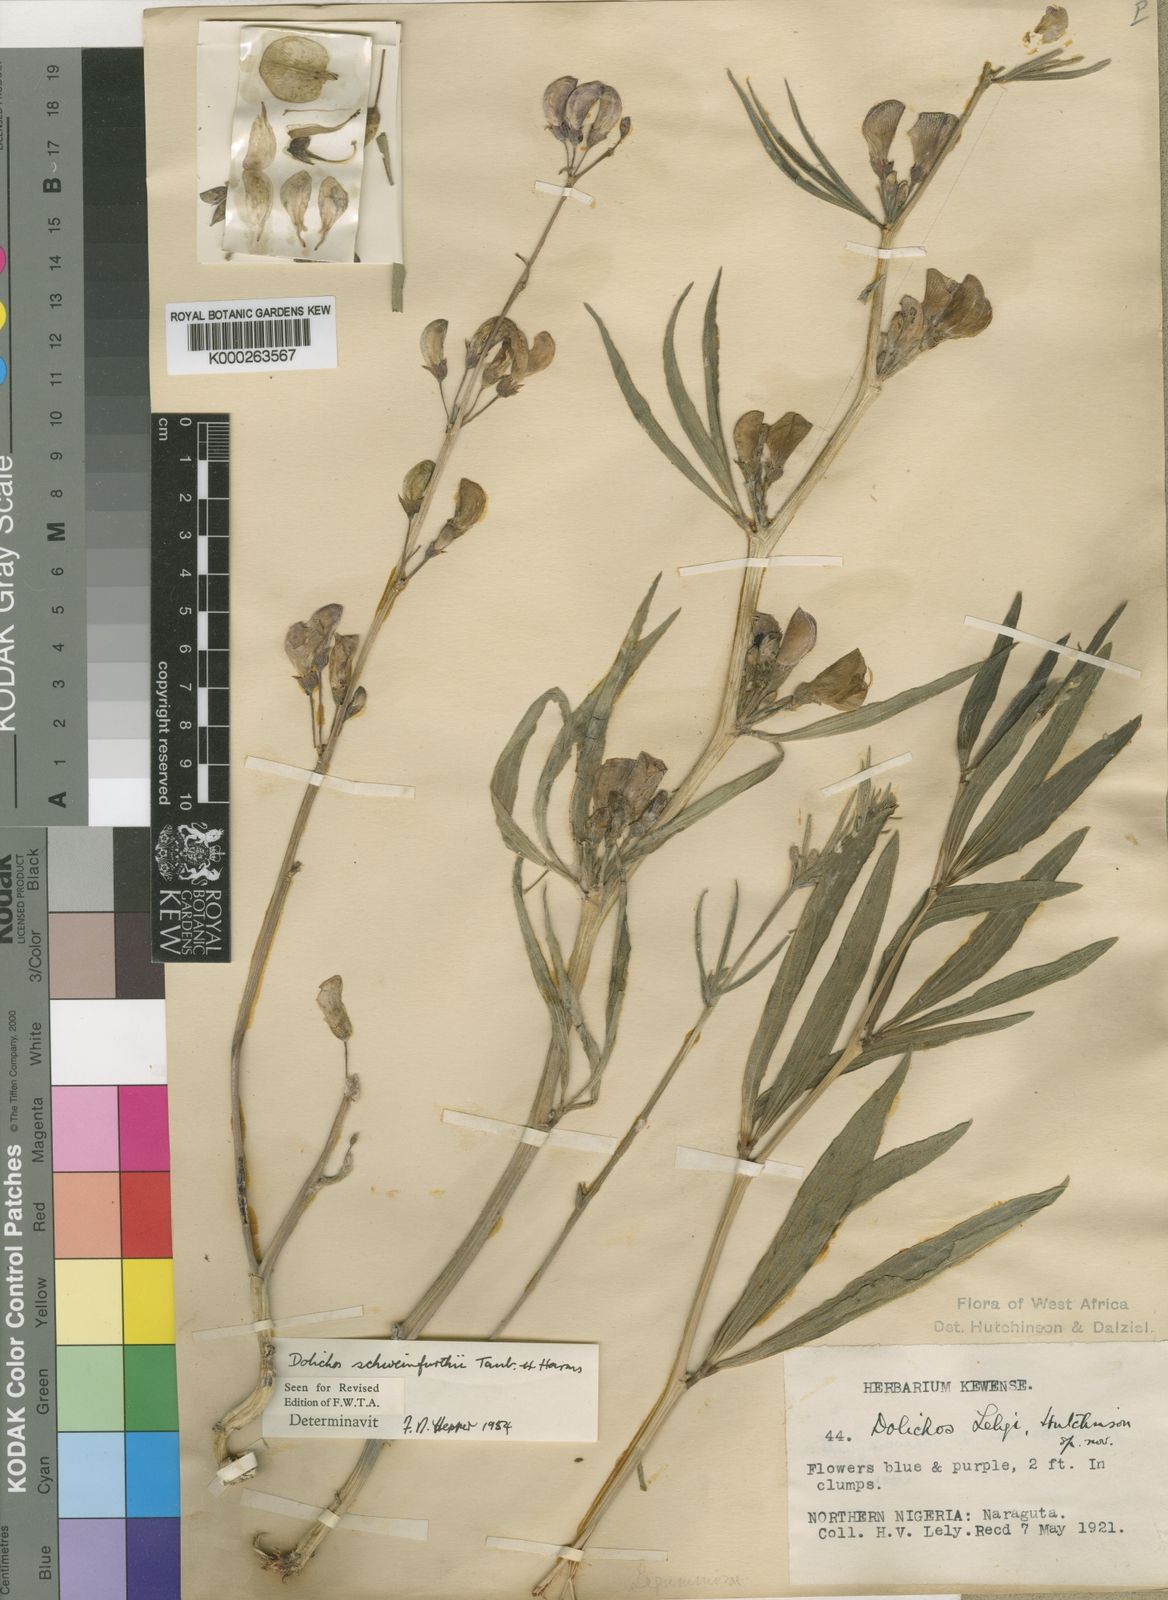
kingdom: Plantae
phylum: Tracheophyta
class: Magnoliopsida
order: Fabales
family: Fabaceae
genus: Dolichos
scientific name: Dolichos
